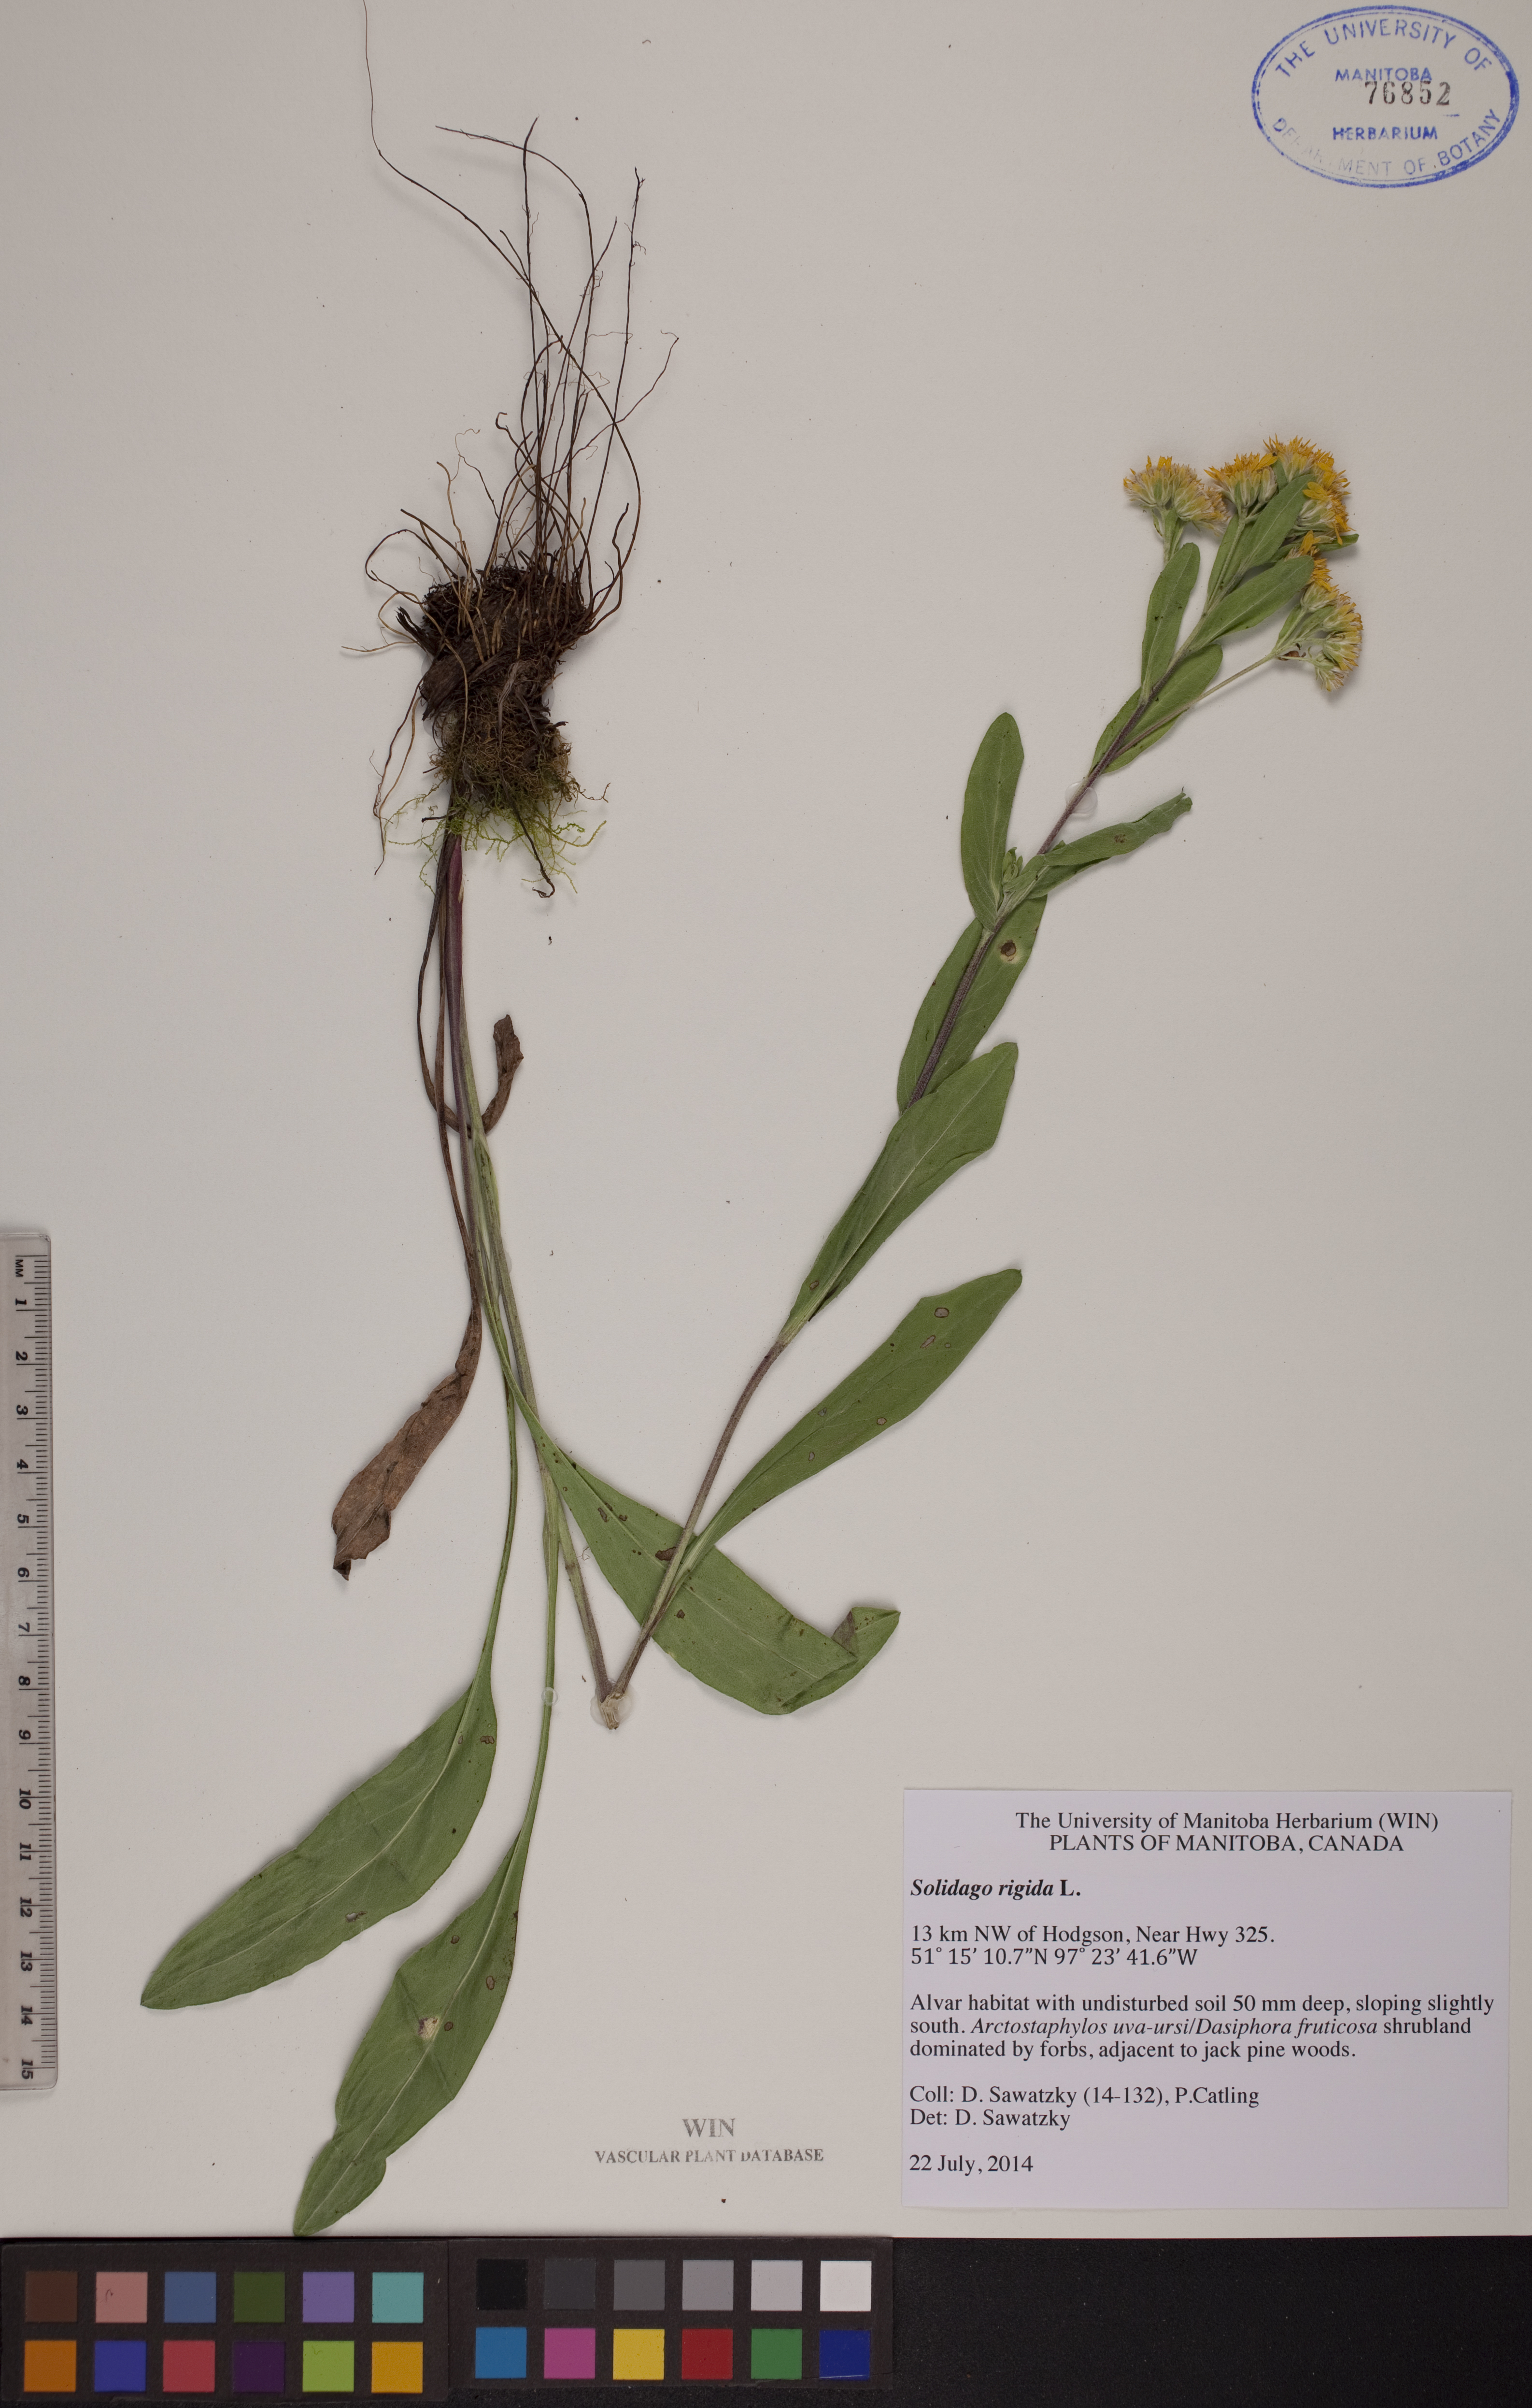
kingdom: Plantae
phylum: Tracheophyta
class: Magnoliopsida
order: Asterales
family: Asteraceae
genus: Solidago
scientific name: Solidago rigida
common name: Rigid goldenrod
